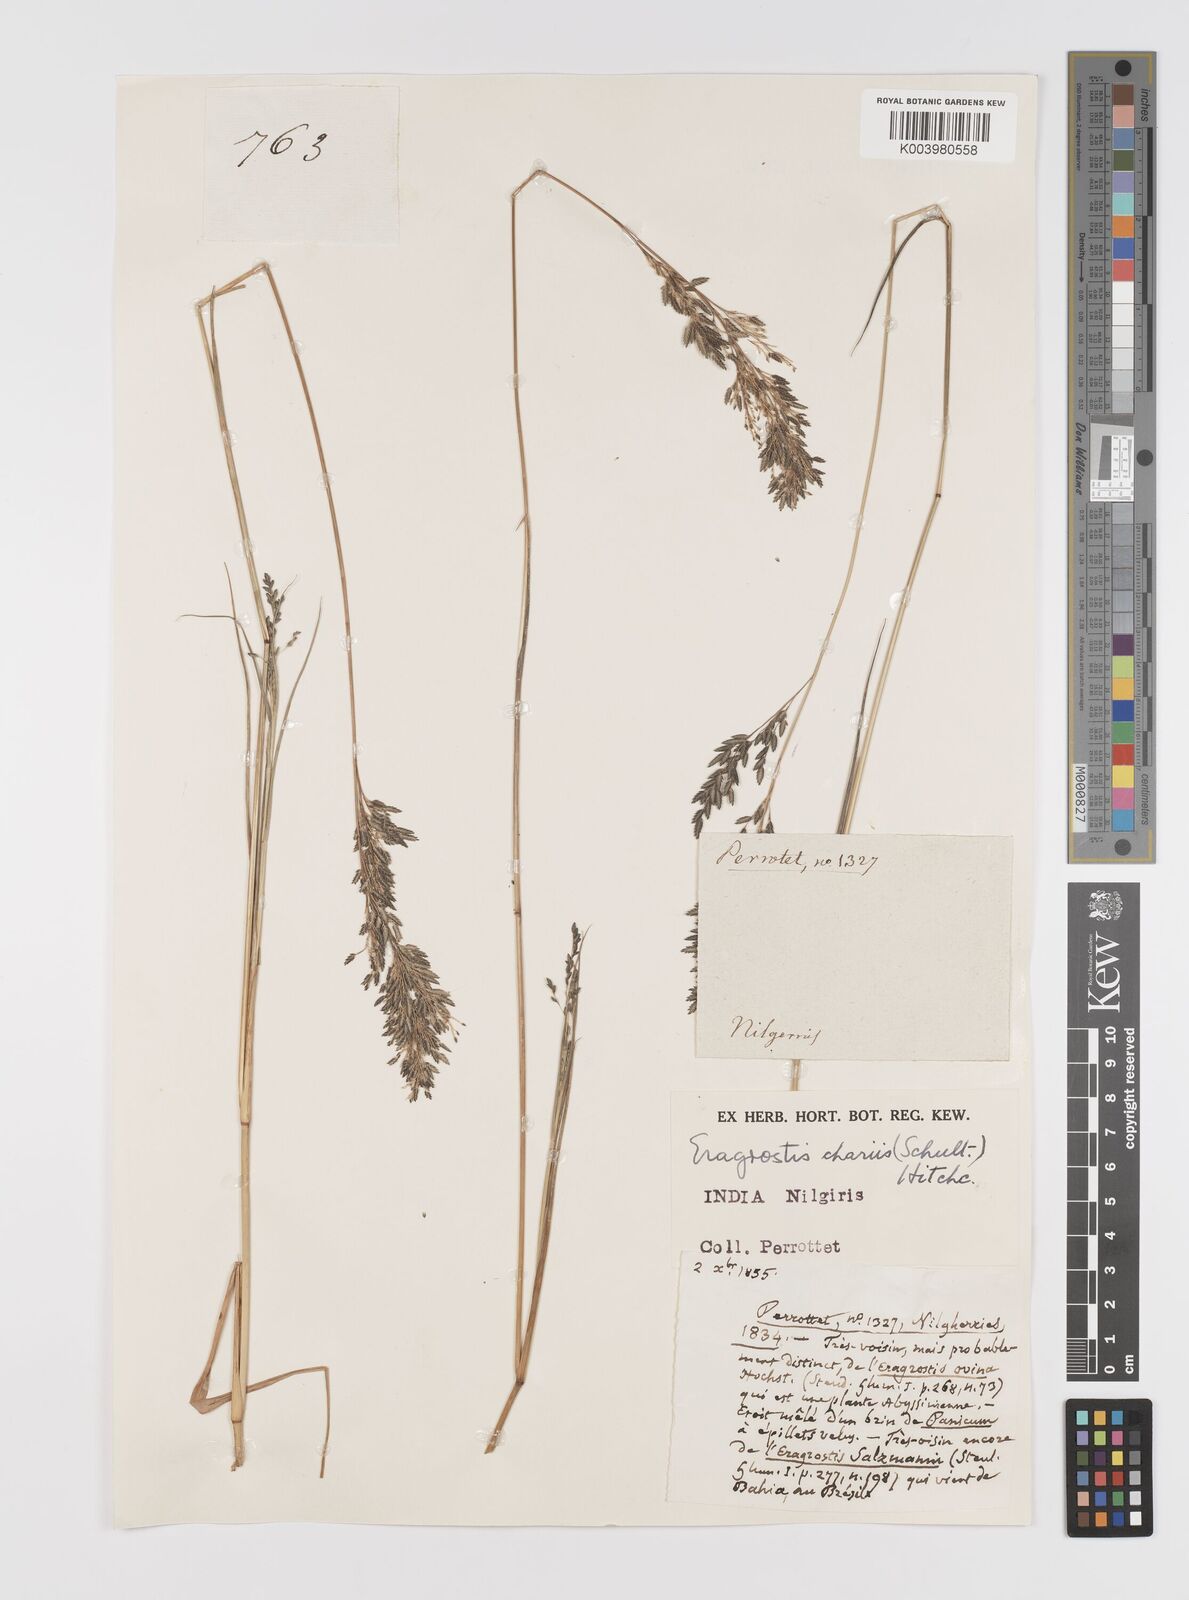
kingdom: Plantae
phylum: Tracheophyta
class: Liliopsida
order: Poales
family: Poaceae
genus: Eragrostis
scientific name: Eragrostis
